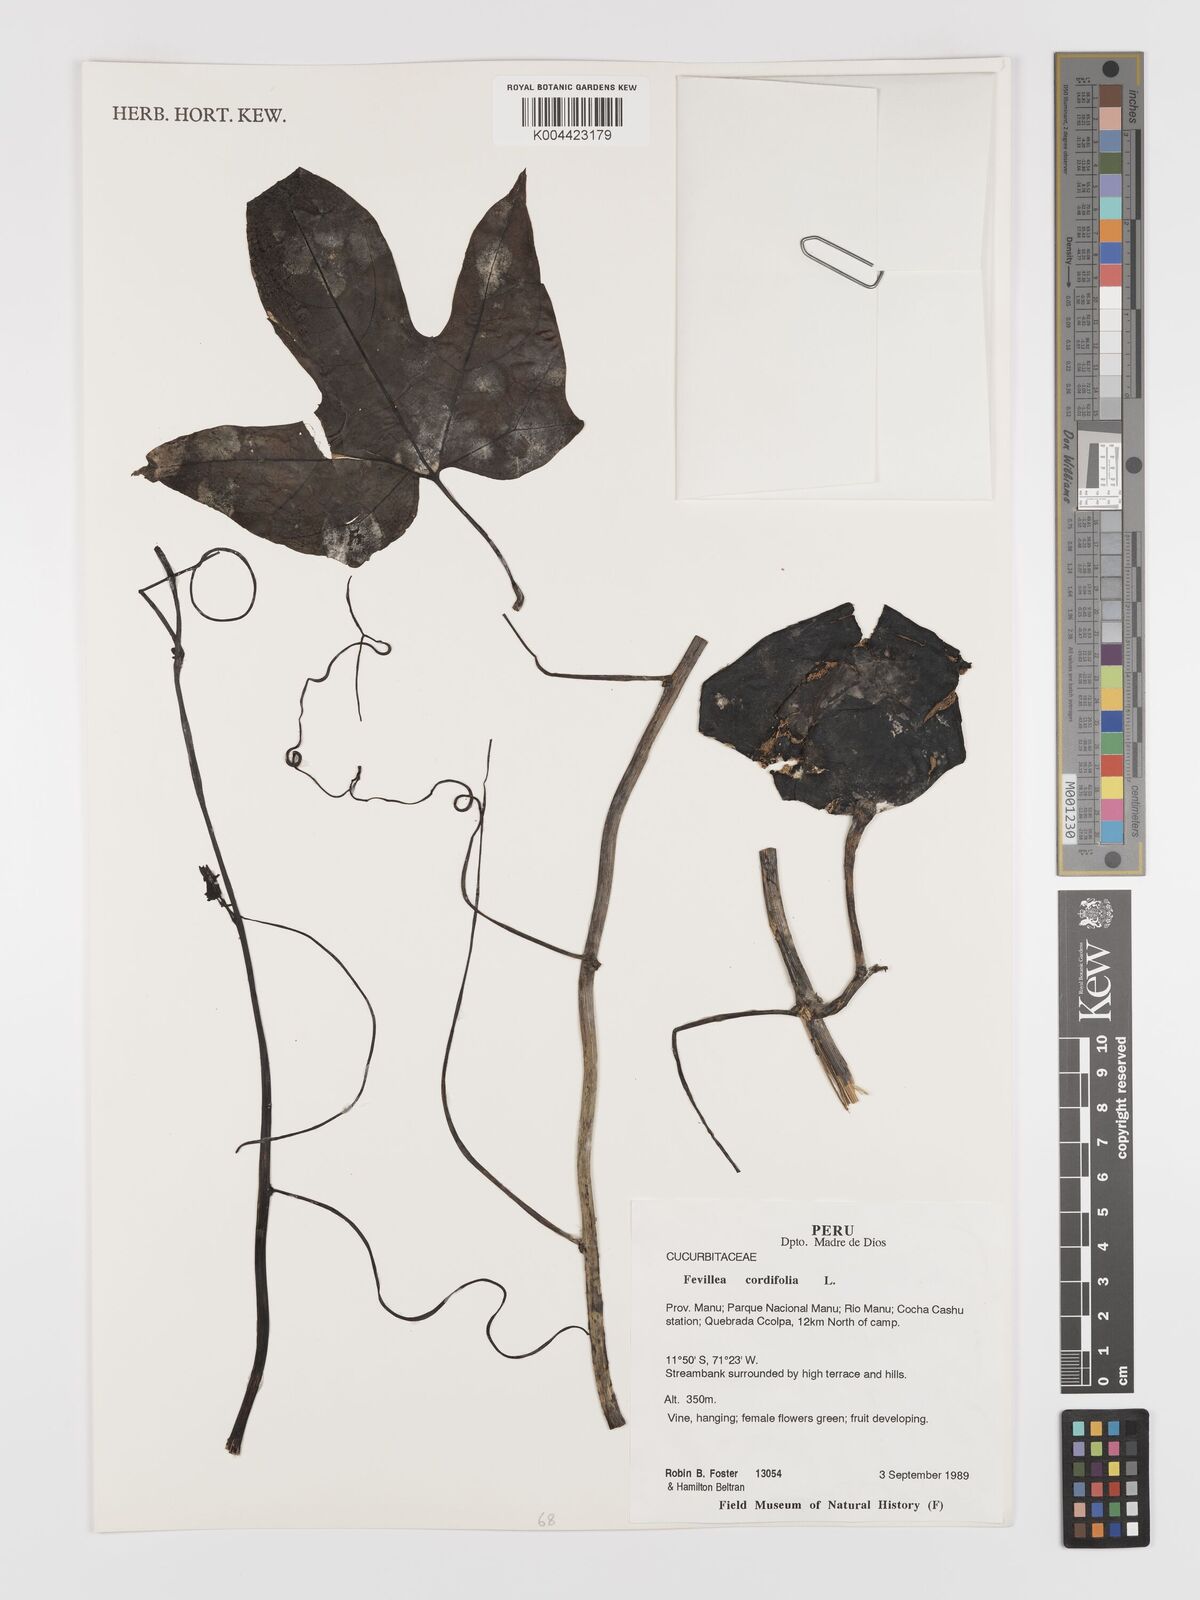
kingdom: Plantae
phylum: Tracheophyta
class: Magnoliopsida
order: Cucurbitales
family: Cucurbitaceae
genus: Fevillea
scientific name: Fevillea
